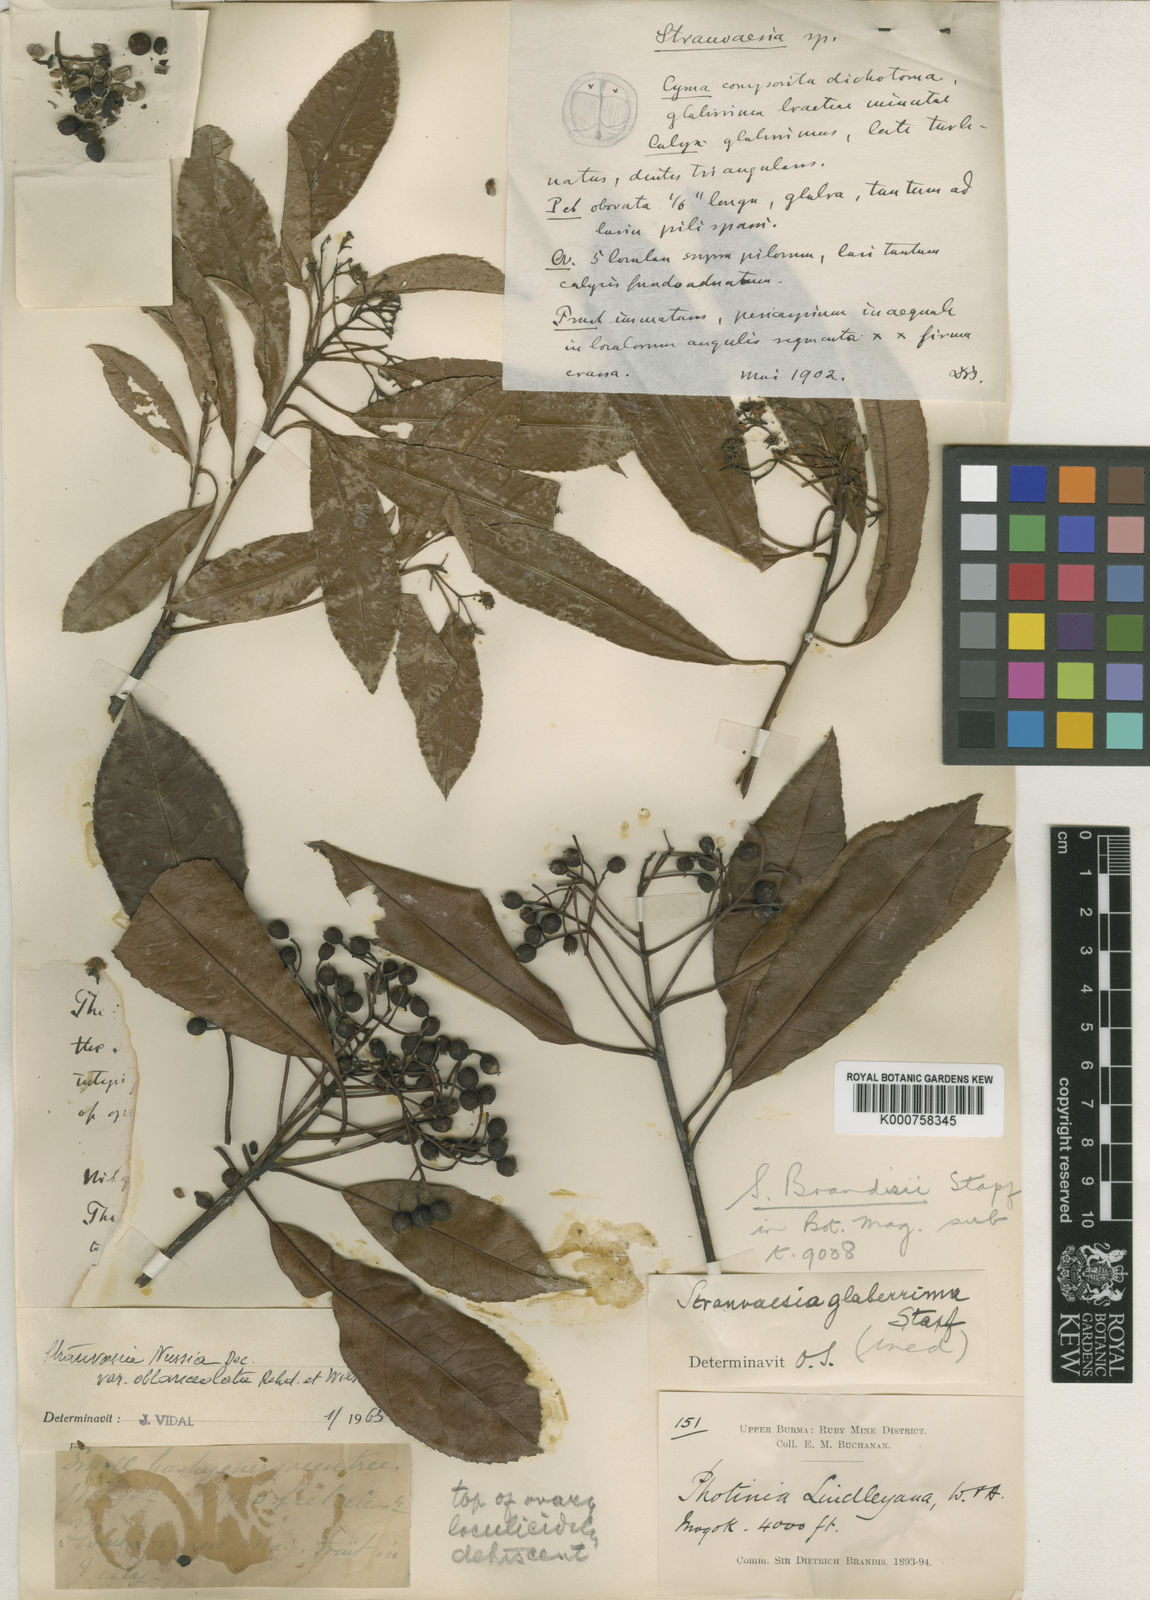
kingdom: Plantae
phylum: Tracheophyta
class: Magnoliopsida
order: Rosales
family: Rosaceae
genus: Photinia
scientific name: Photinia
